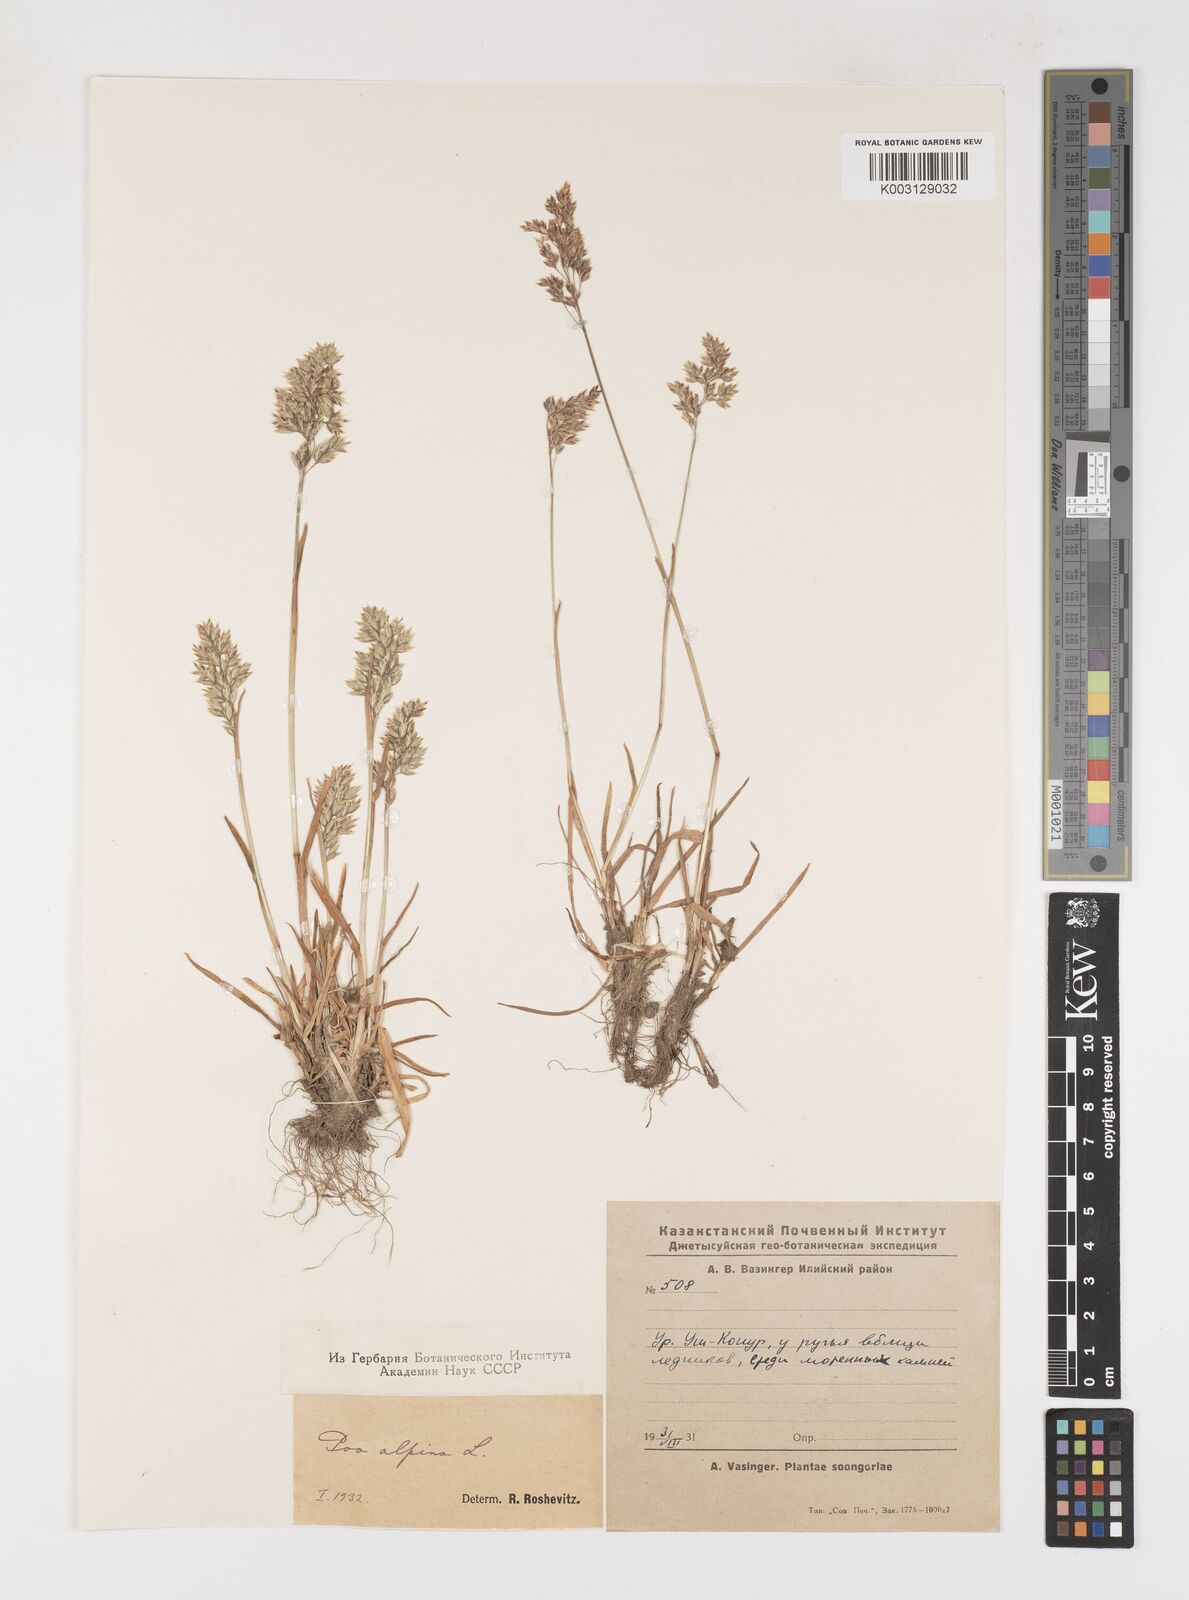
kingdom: Plantae
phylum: Tracheophyta
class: Liliopsida
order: Poales
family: Poaceae
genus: Poa
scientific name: Poa alpina
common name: Alpine bluegrass
